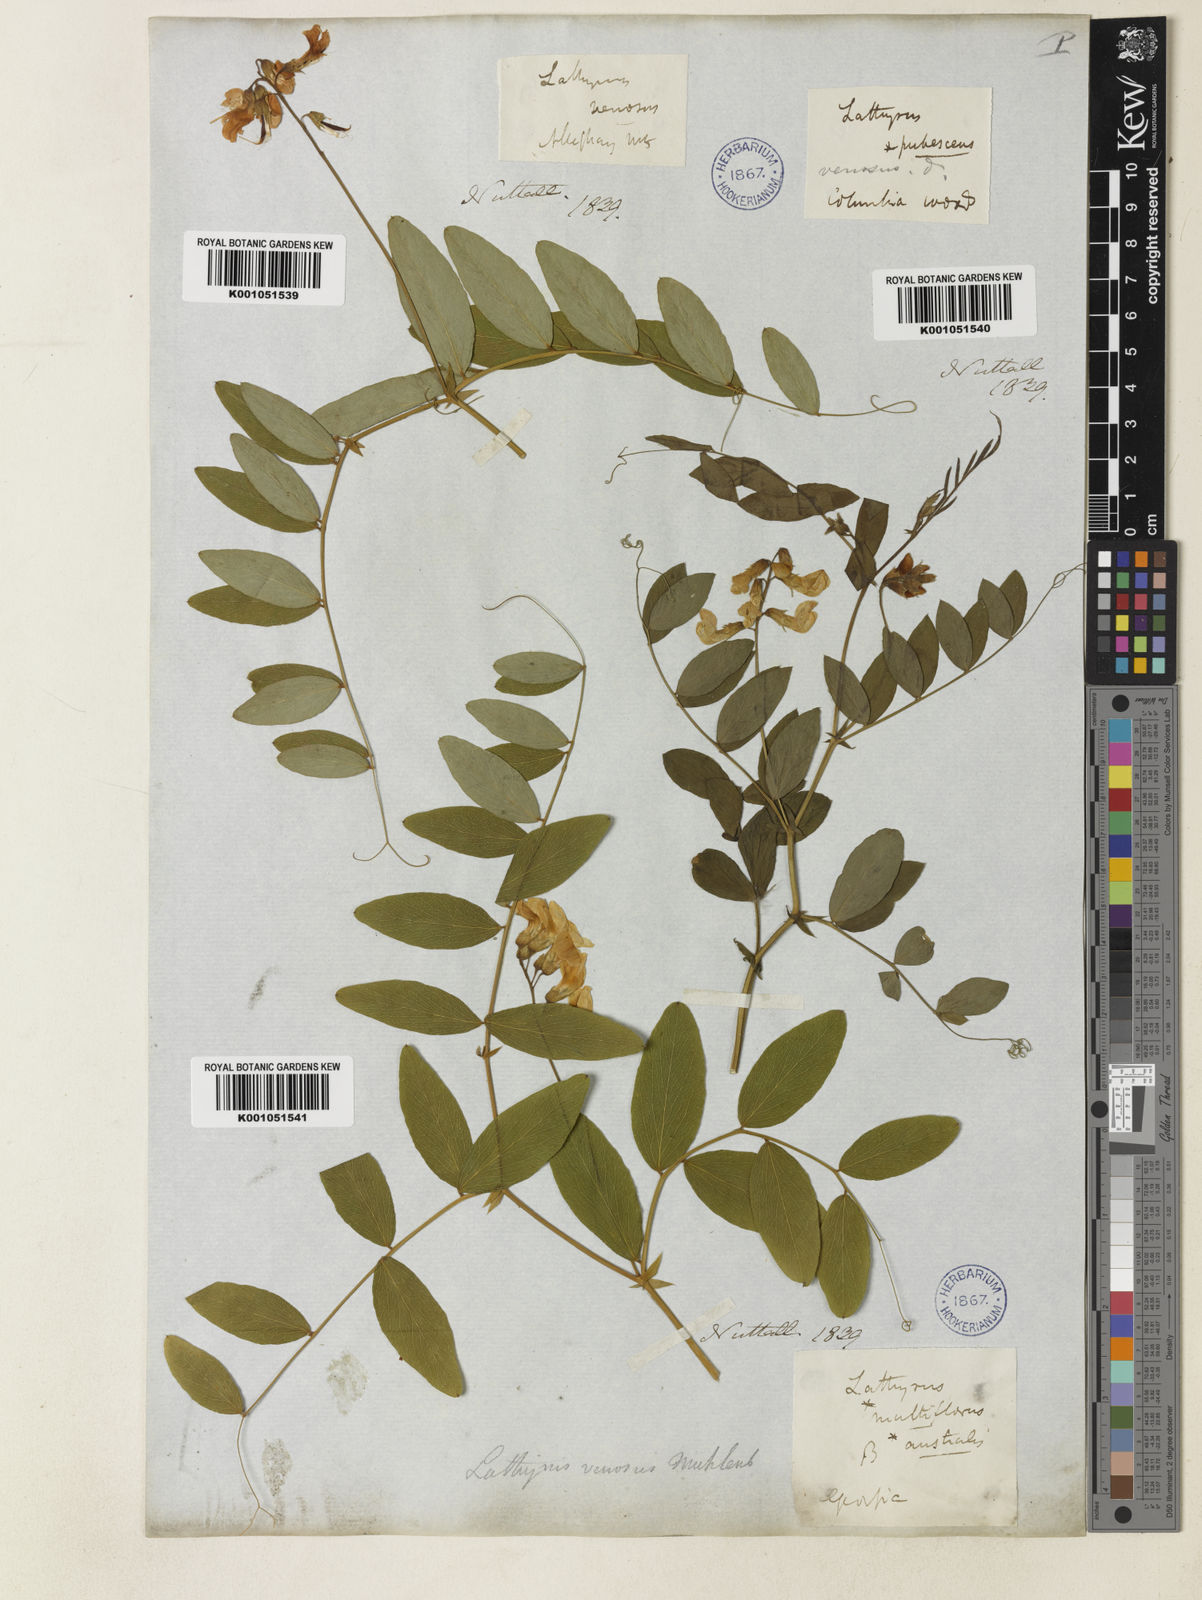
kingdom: Plantae
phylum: Tracheophyta
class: Magnoliopsida
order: Fabales
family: Fabaceae
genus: Lathyrus
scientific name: Lathyrus venosus
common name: Forest-pea
